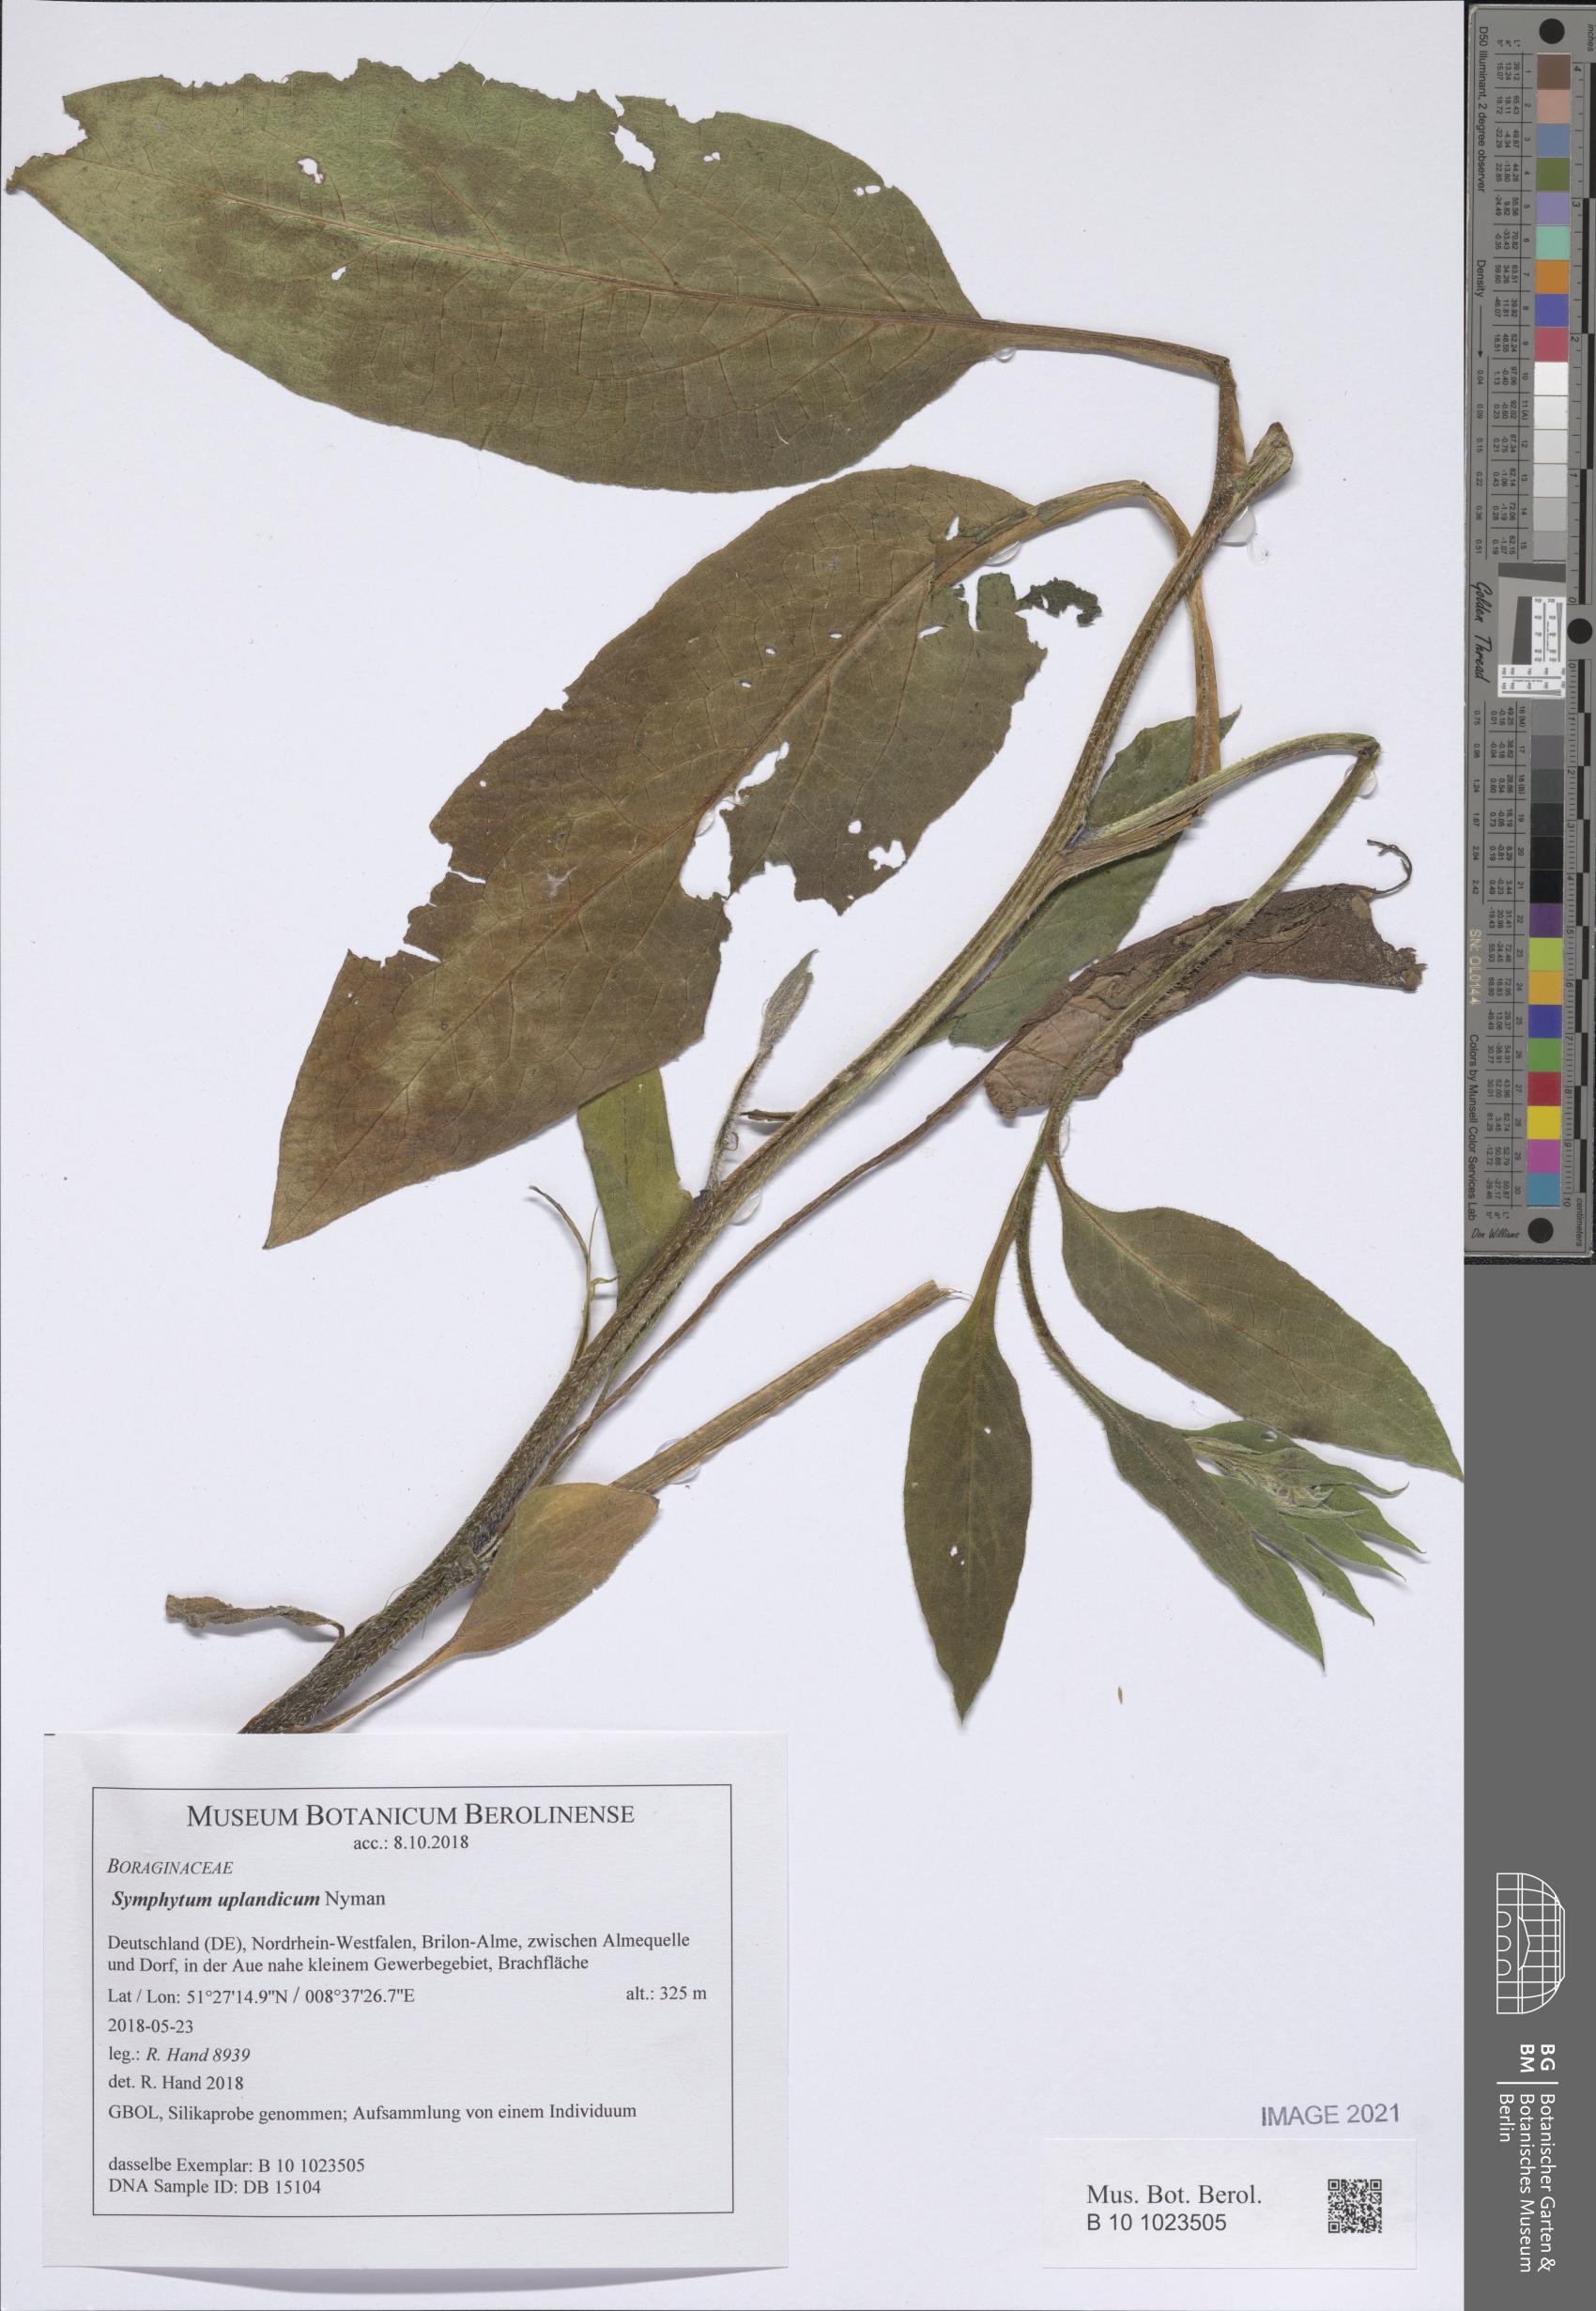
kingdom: Plantae
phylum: Tracheophyta
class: Magnoliopsida
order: Boraginales
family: Boraginaceae
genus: Symphytum
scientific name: Symphytum uplandicum
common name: Russian comfrey
